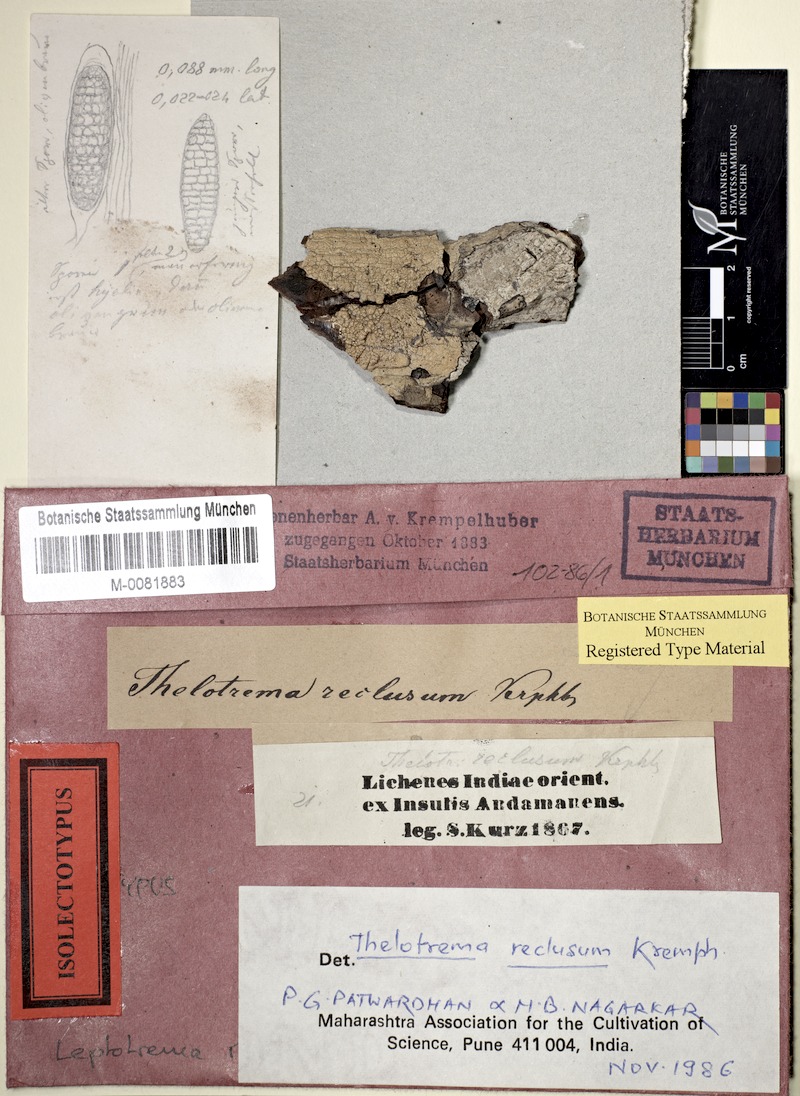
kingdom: Fungi
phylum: Ascomycota
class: Lecanoromycetes
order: Ostropales
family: Graphidaceae
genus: Leucodecton
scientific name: Leucodecton compunctellum
